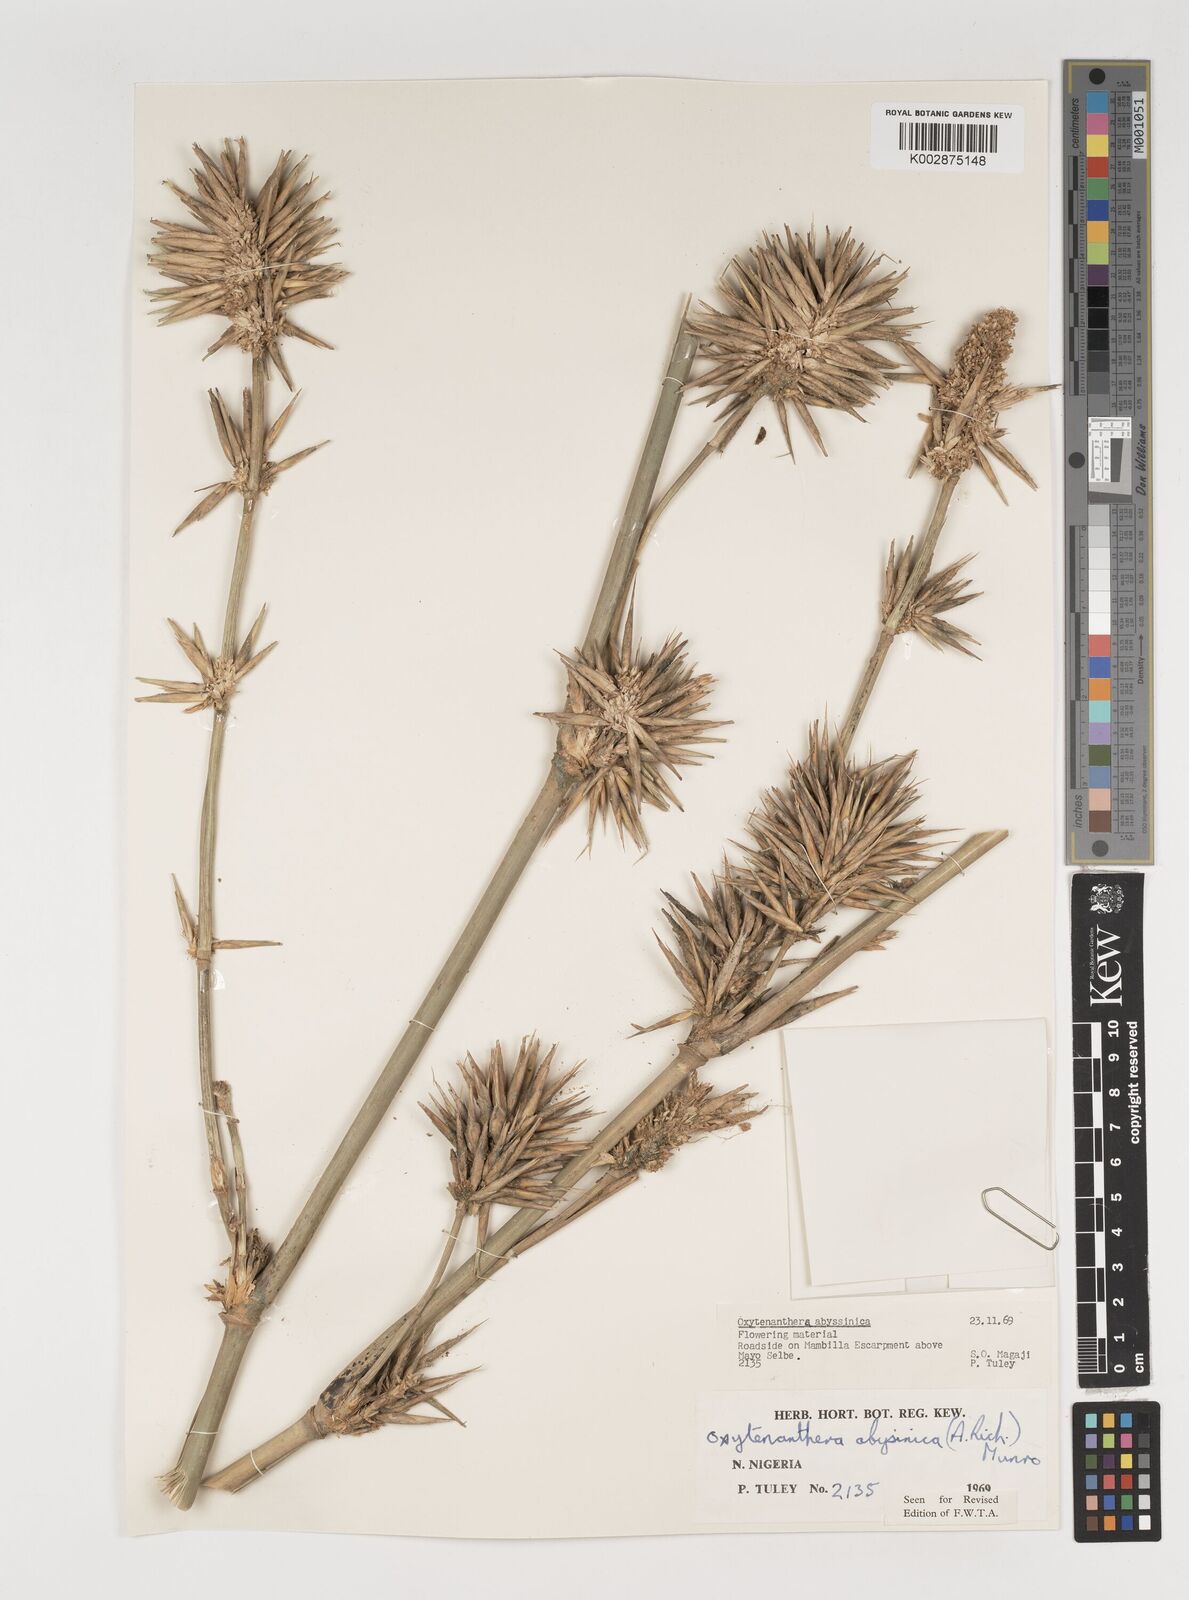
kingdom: Plantae
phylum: Tracheophyta
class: Liliopsida
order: Poales
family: Poaceae
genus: Oxytenanthera
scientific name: Oxytenanthera abyssinica
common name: Wine bamboo
